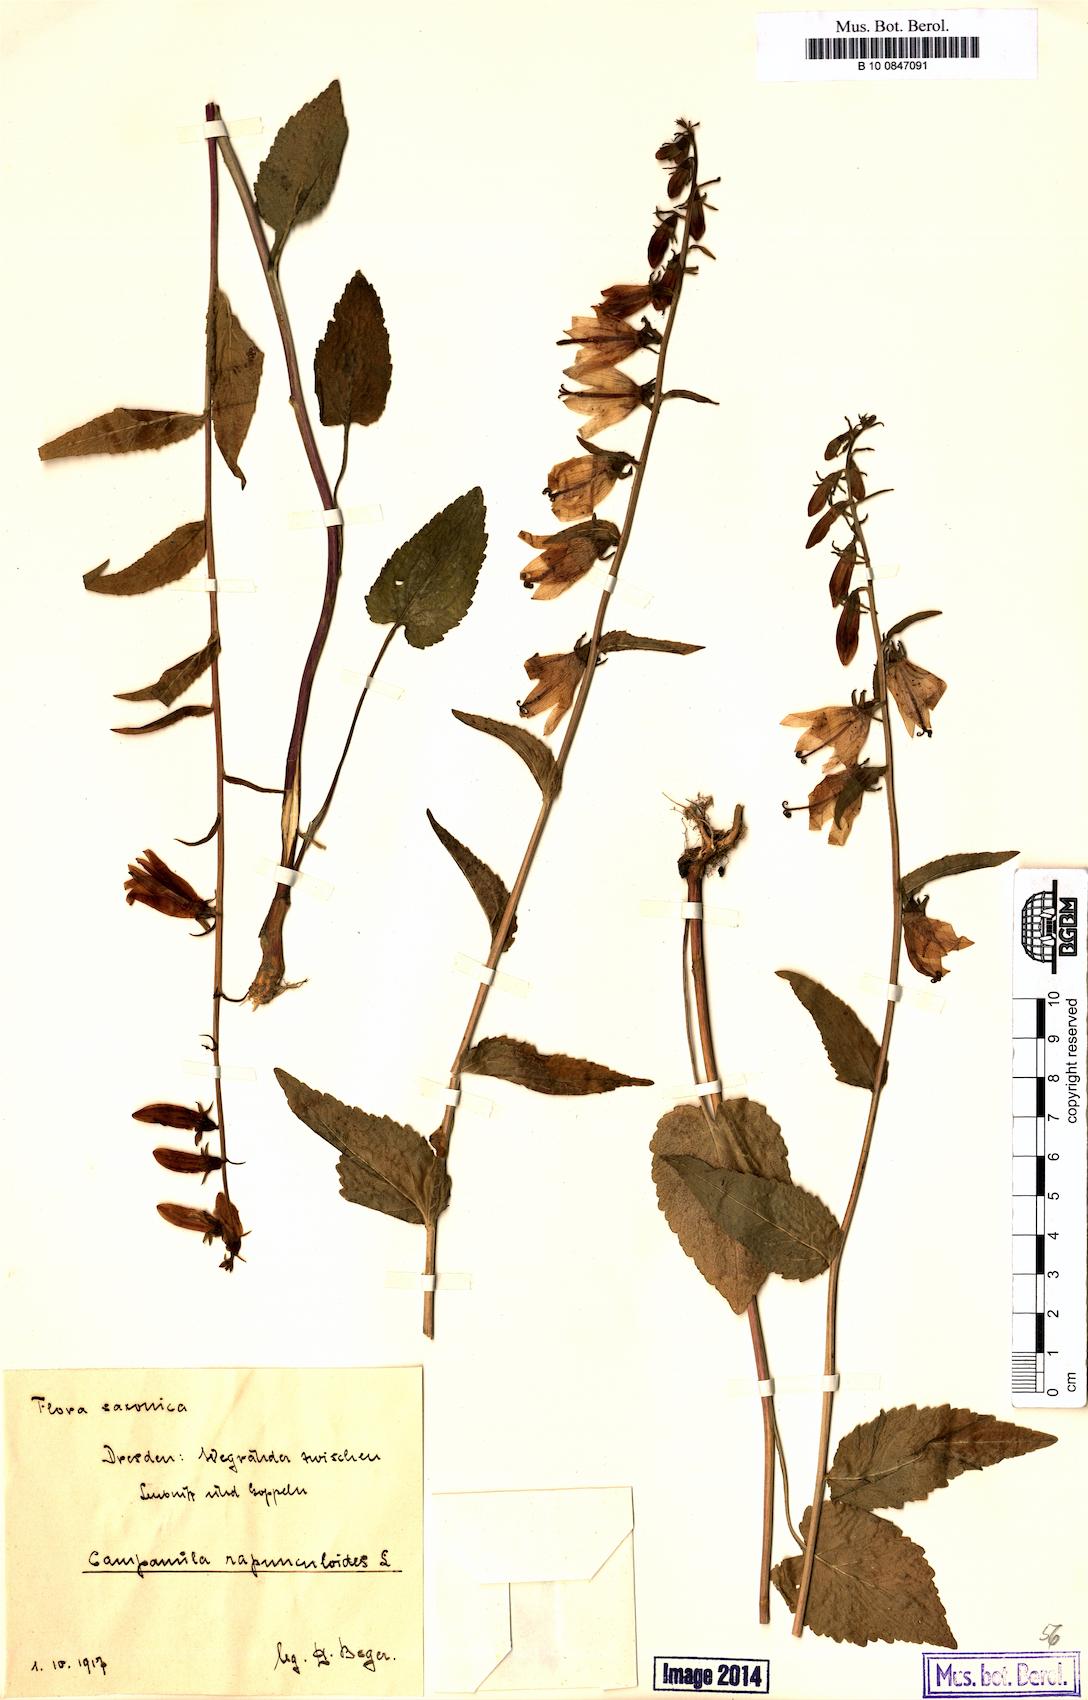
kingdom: Plantae
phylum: Tracheophyta
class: Magnoliopsida
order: Asterales
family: Campanulaceae
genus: Campanula
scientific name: Campanula rapunculoides
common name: Creeping bellflower
